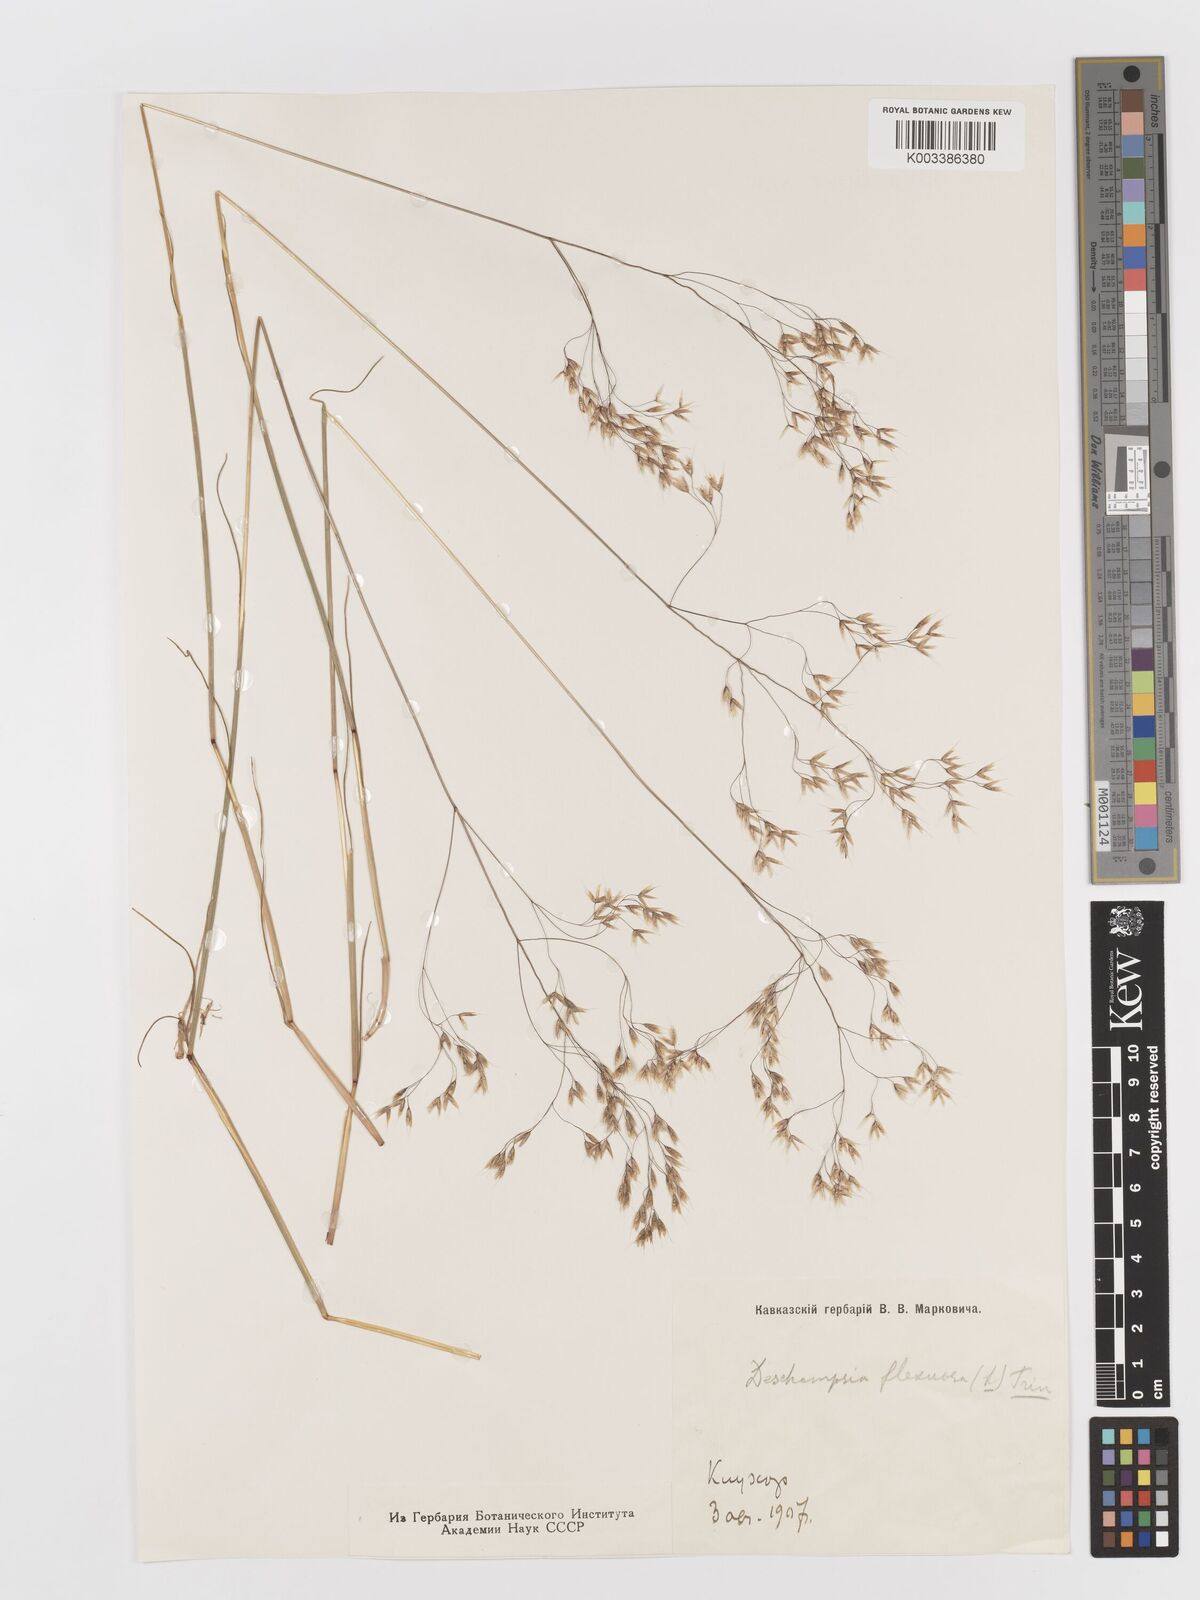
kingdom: Plantae
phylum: Tracheophyta
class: Liliopsida
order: Poales
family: Poaceae
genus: Avenella
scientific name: Avenella flexuosa
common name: Wavy hairgrass
